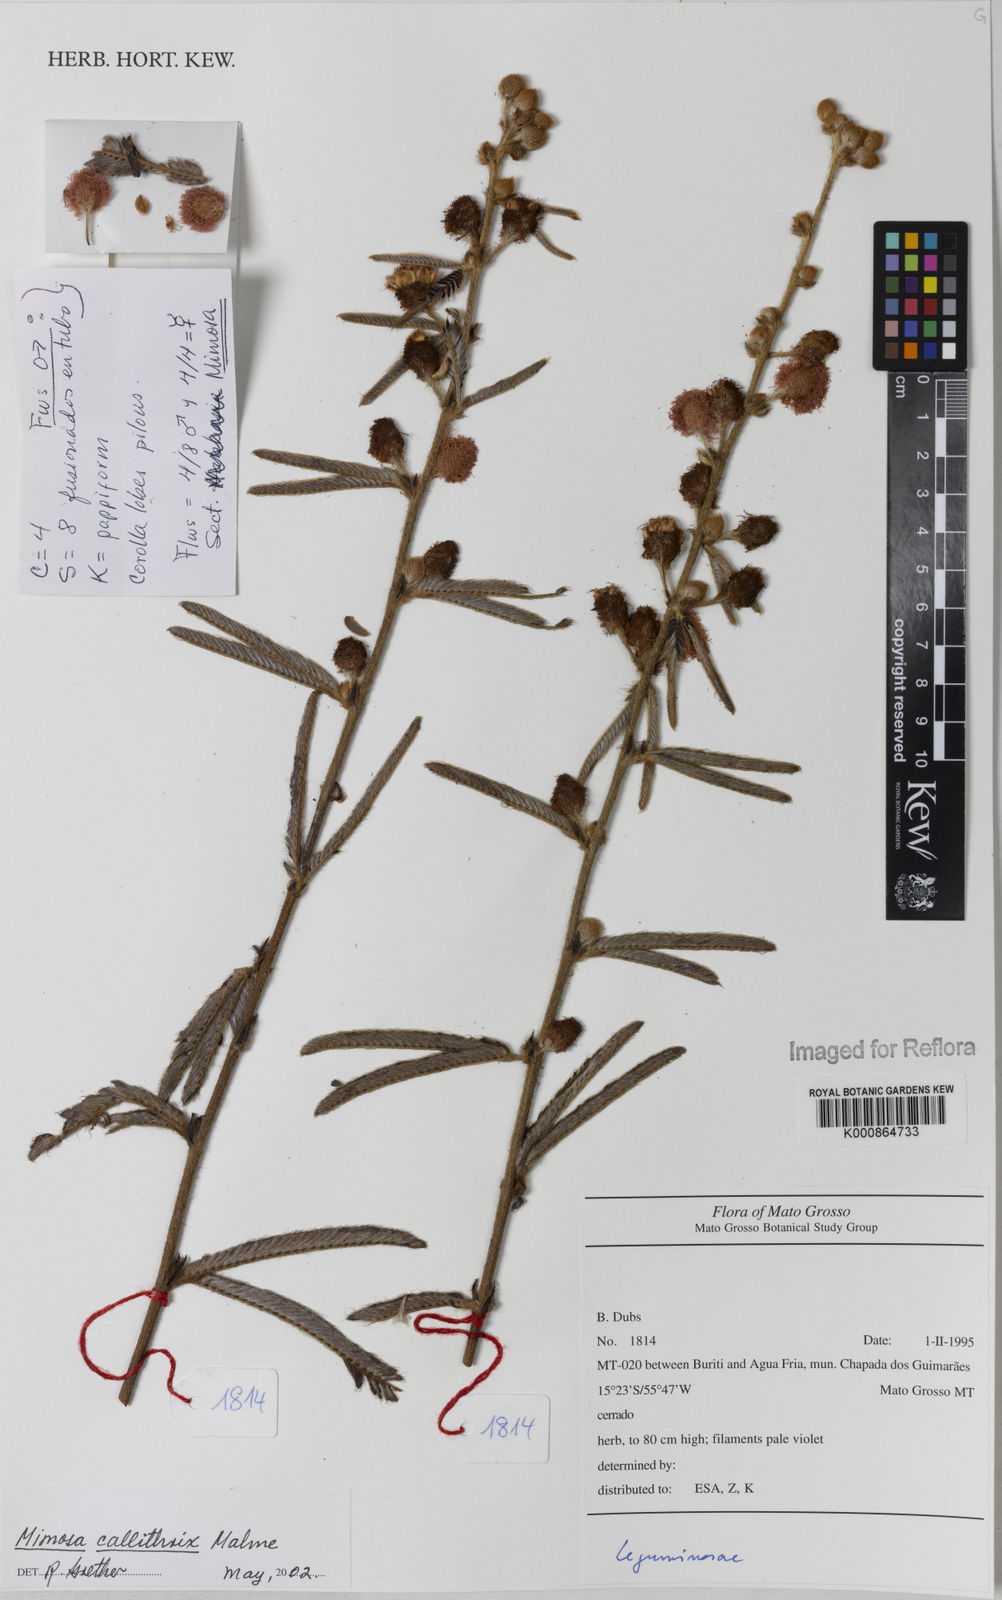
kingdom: Plantae
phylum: Tracheophyta
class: Magnoliopsida
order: Fabales
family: Fabaceae
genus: Mimosa
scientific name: Mimosa callithrix
